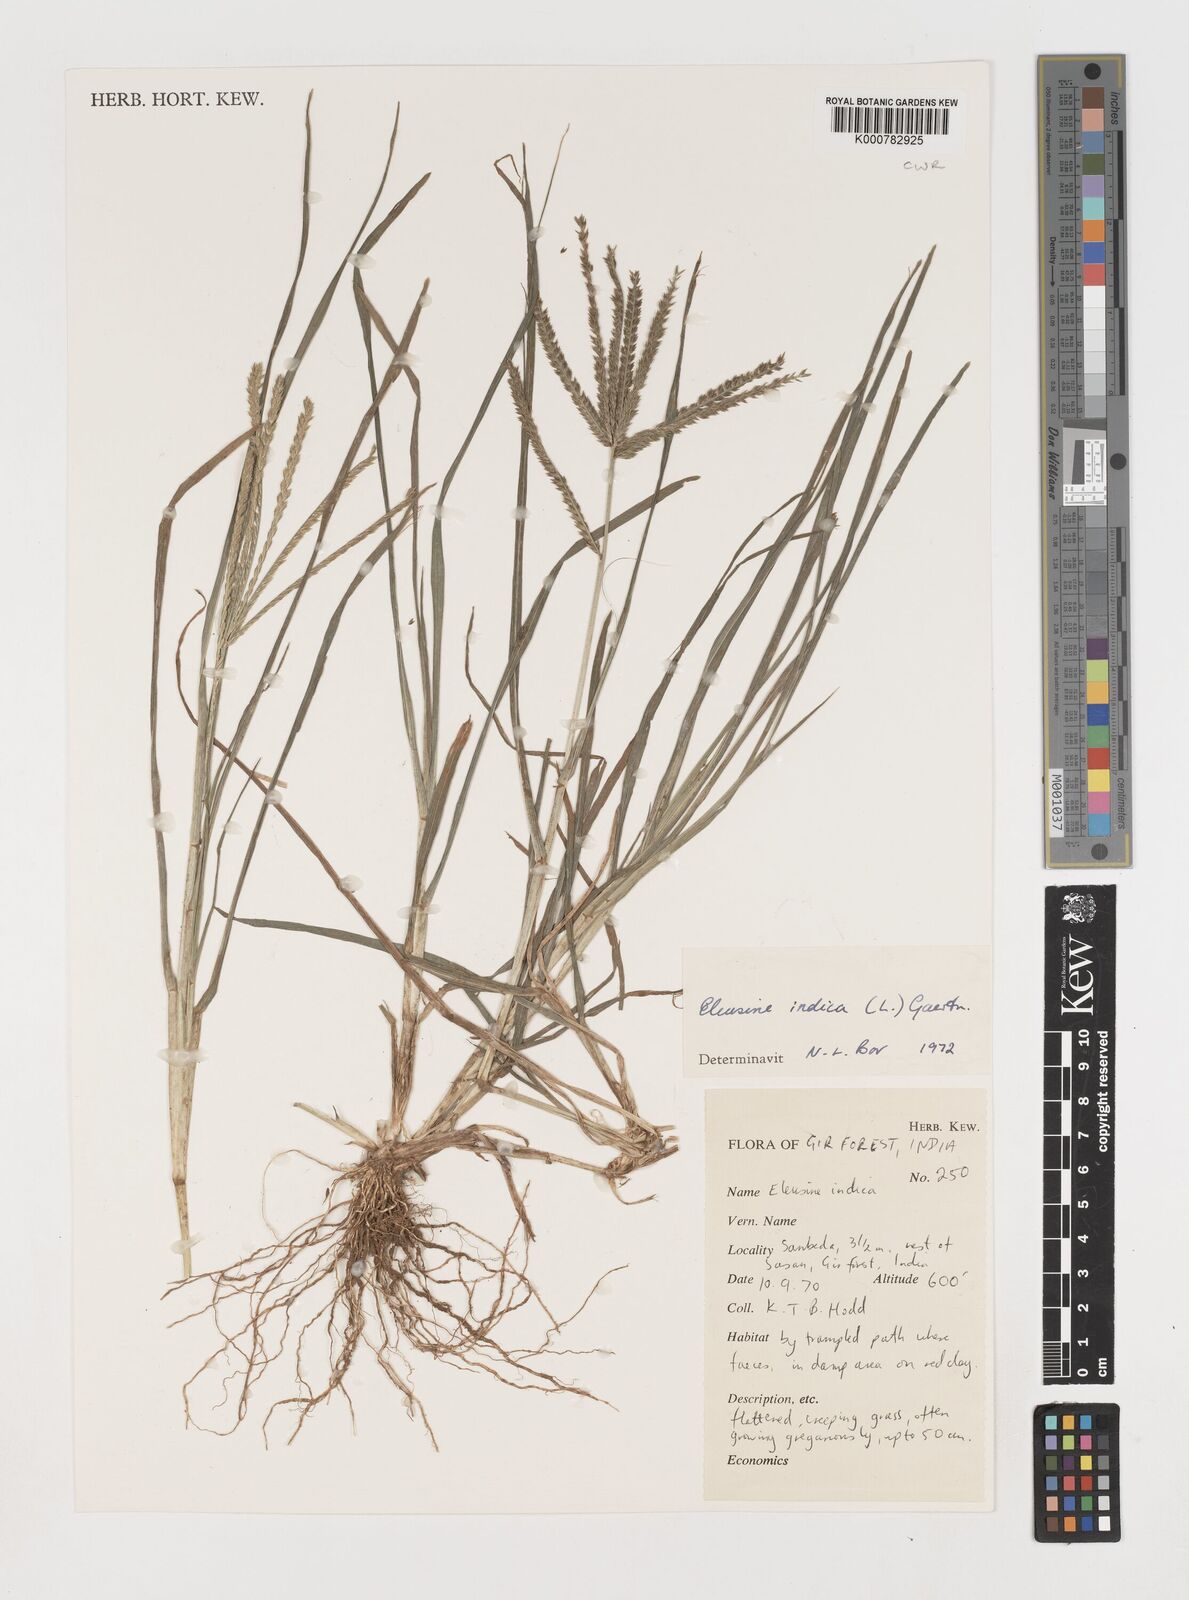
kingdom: Plantae
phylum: Tracheophyta
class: Liliopsida
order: Poales
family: Poaceae
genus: Eleusine
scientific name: Eleusine indica
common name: Yard-grass
